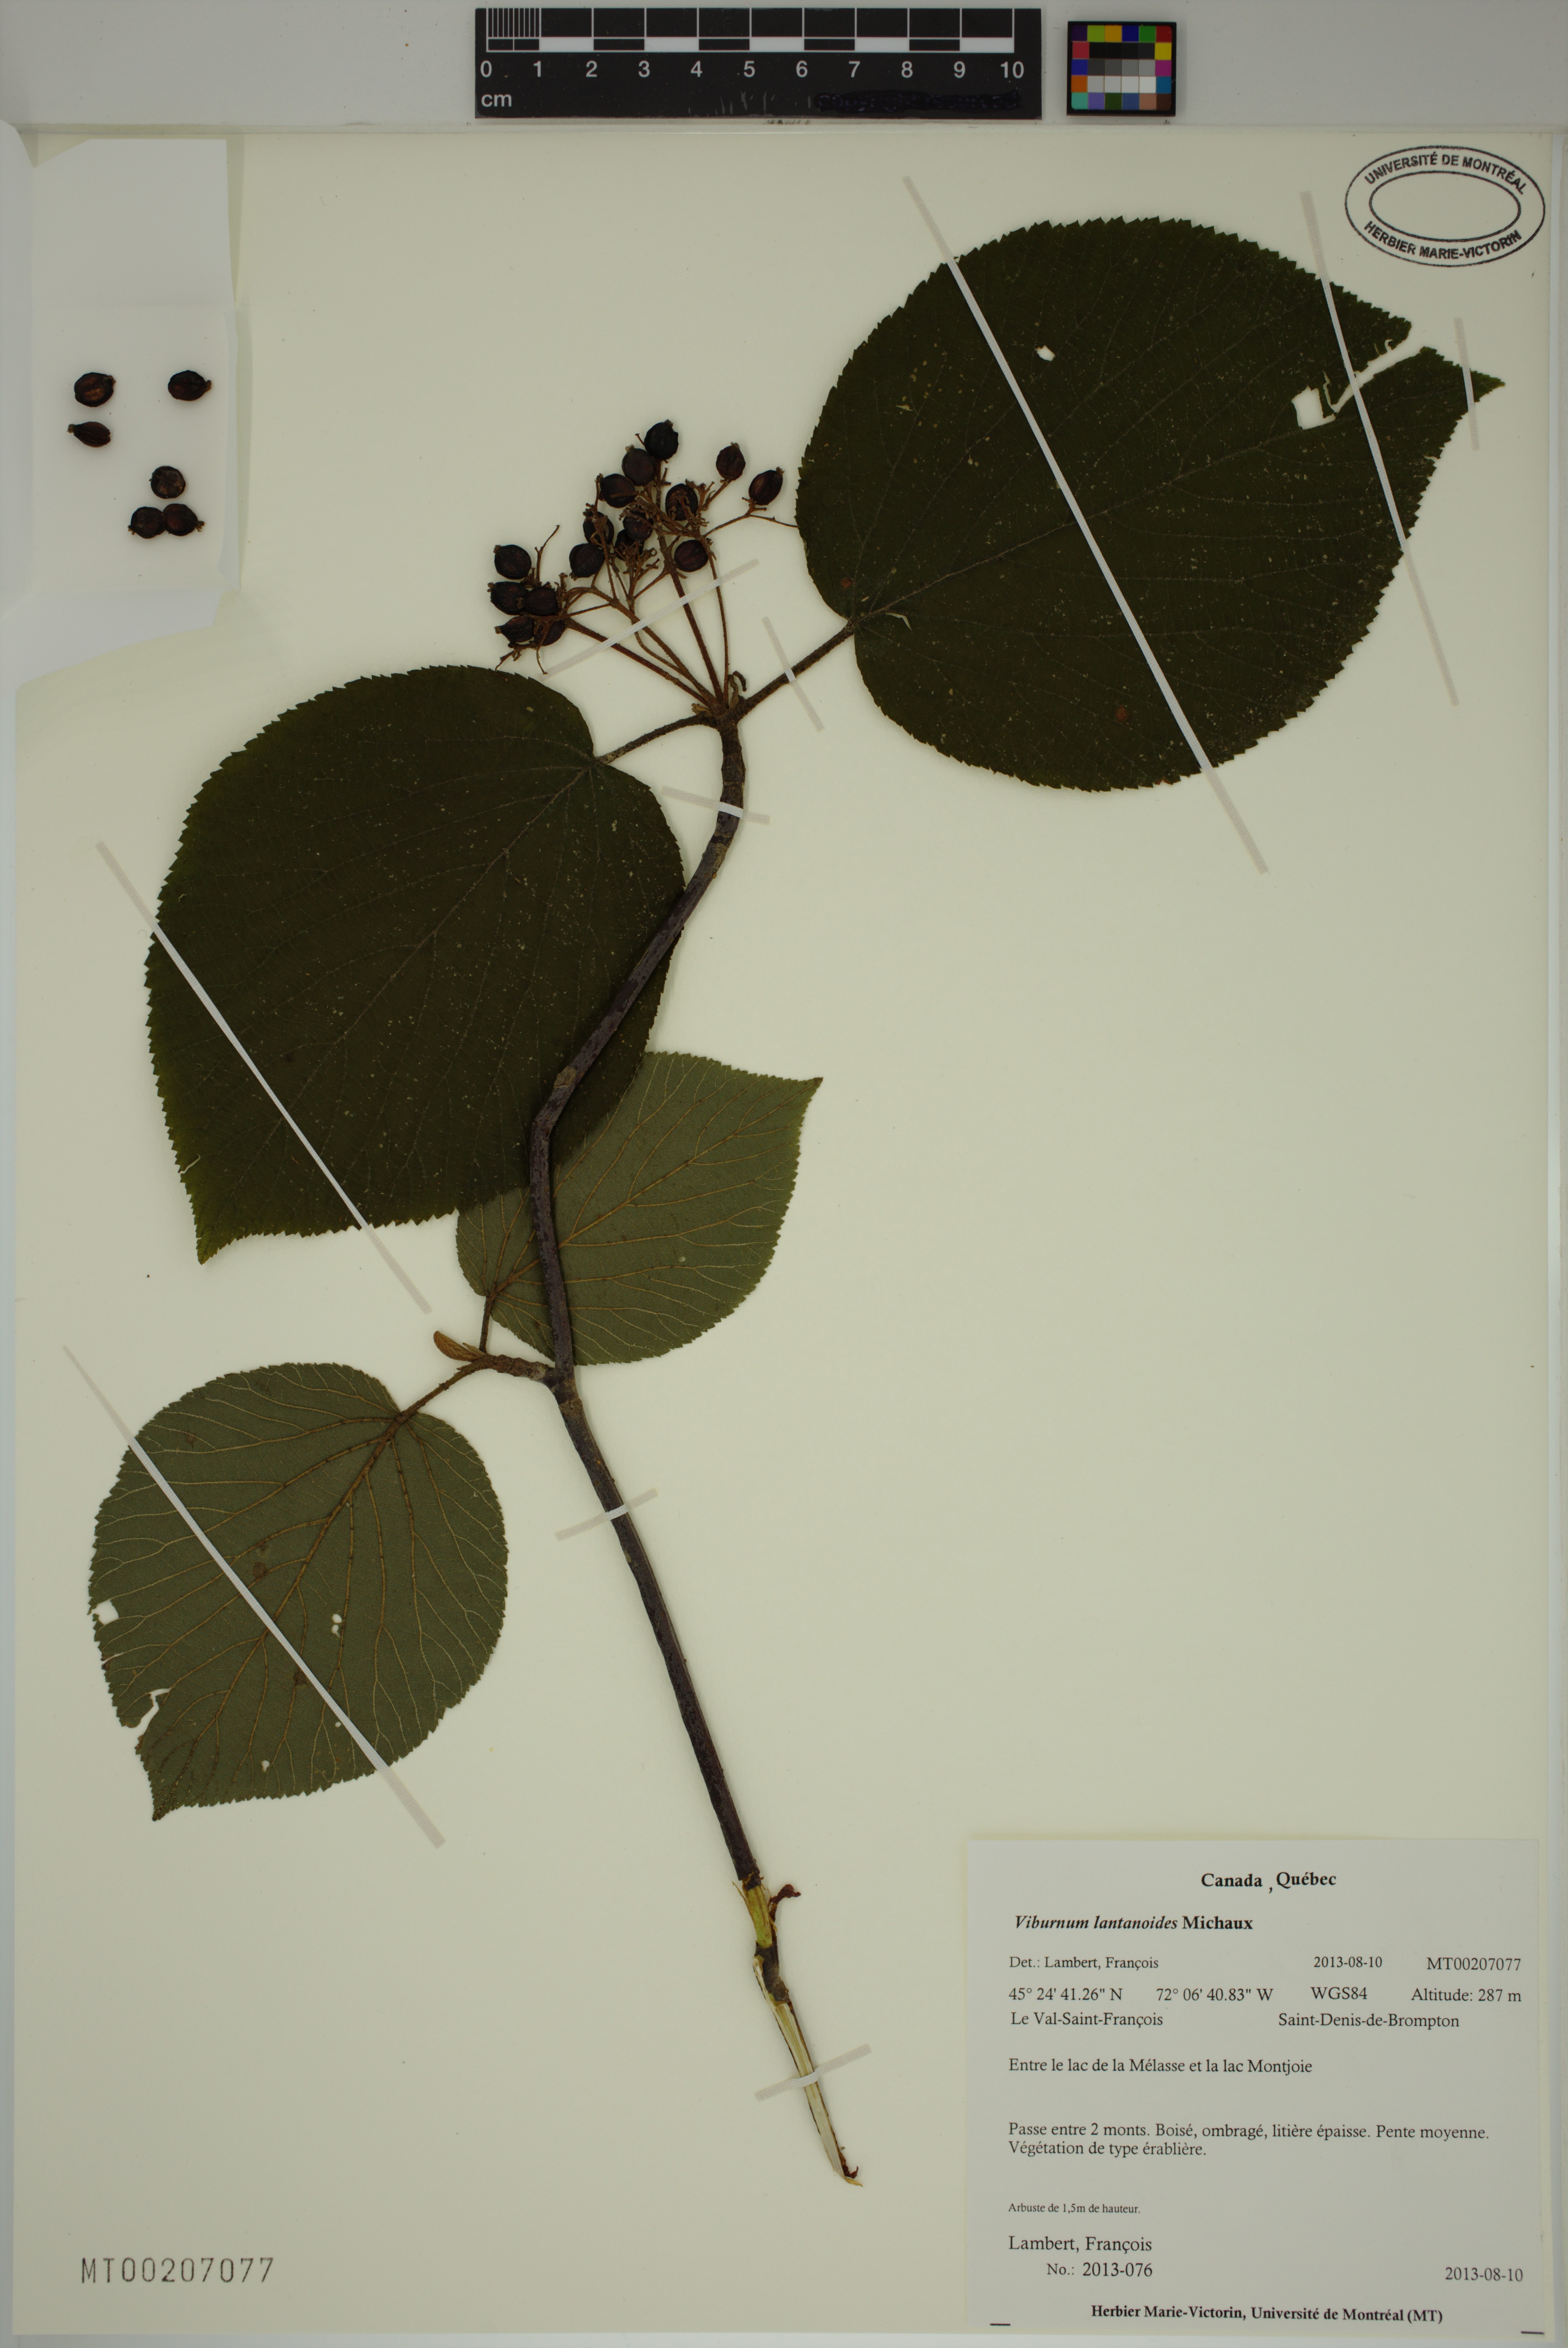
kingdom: Plantae
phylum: Tracheophyta
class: Magnoliopsida
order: Dipsacales
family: Viburnaceae
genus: Viburnum
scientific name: Viburnum lantanoides
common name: Hobblebush
